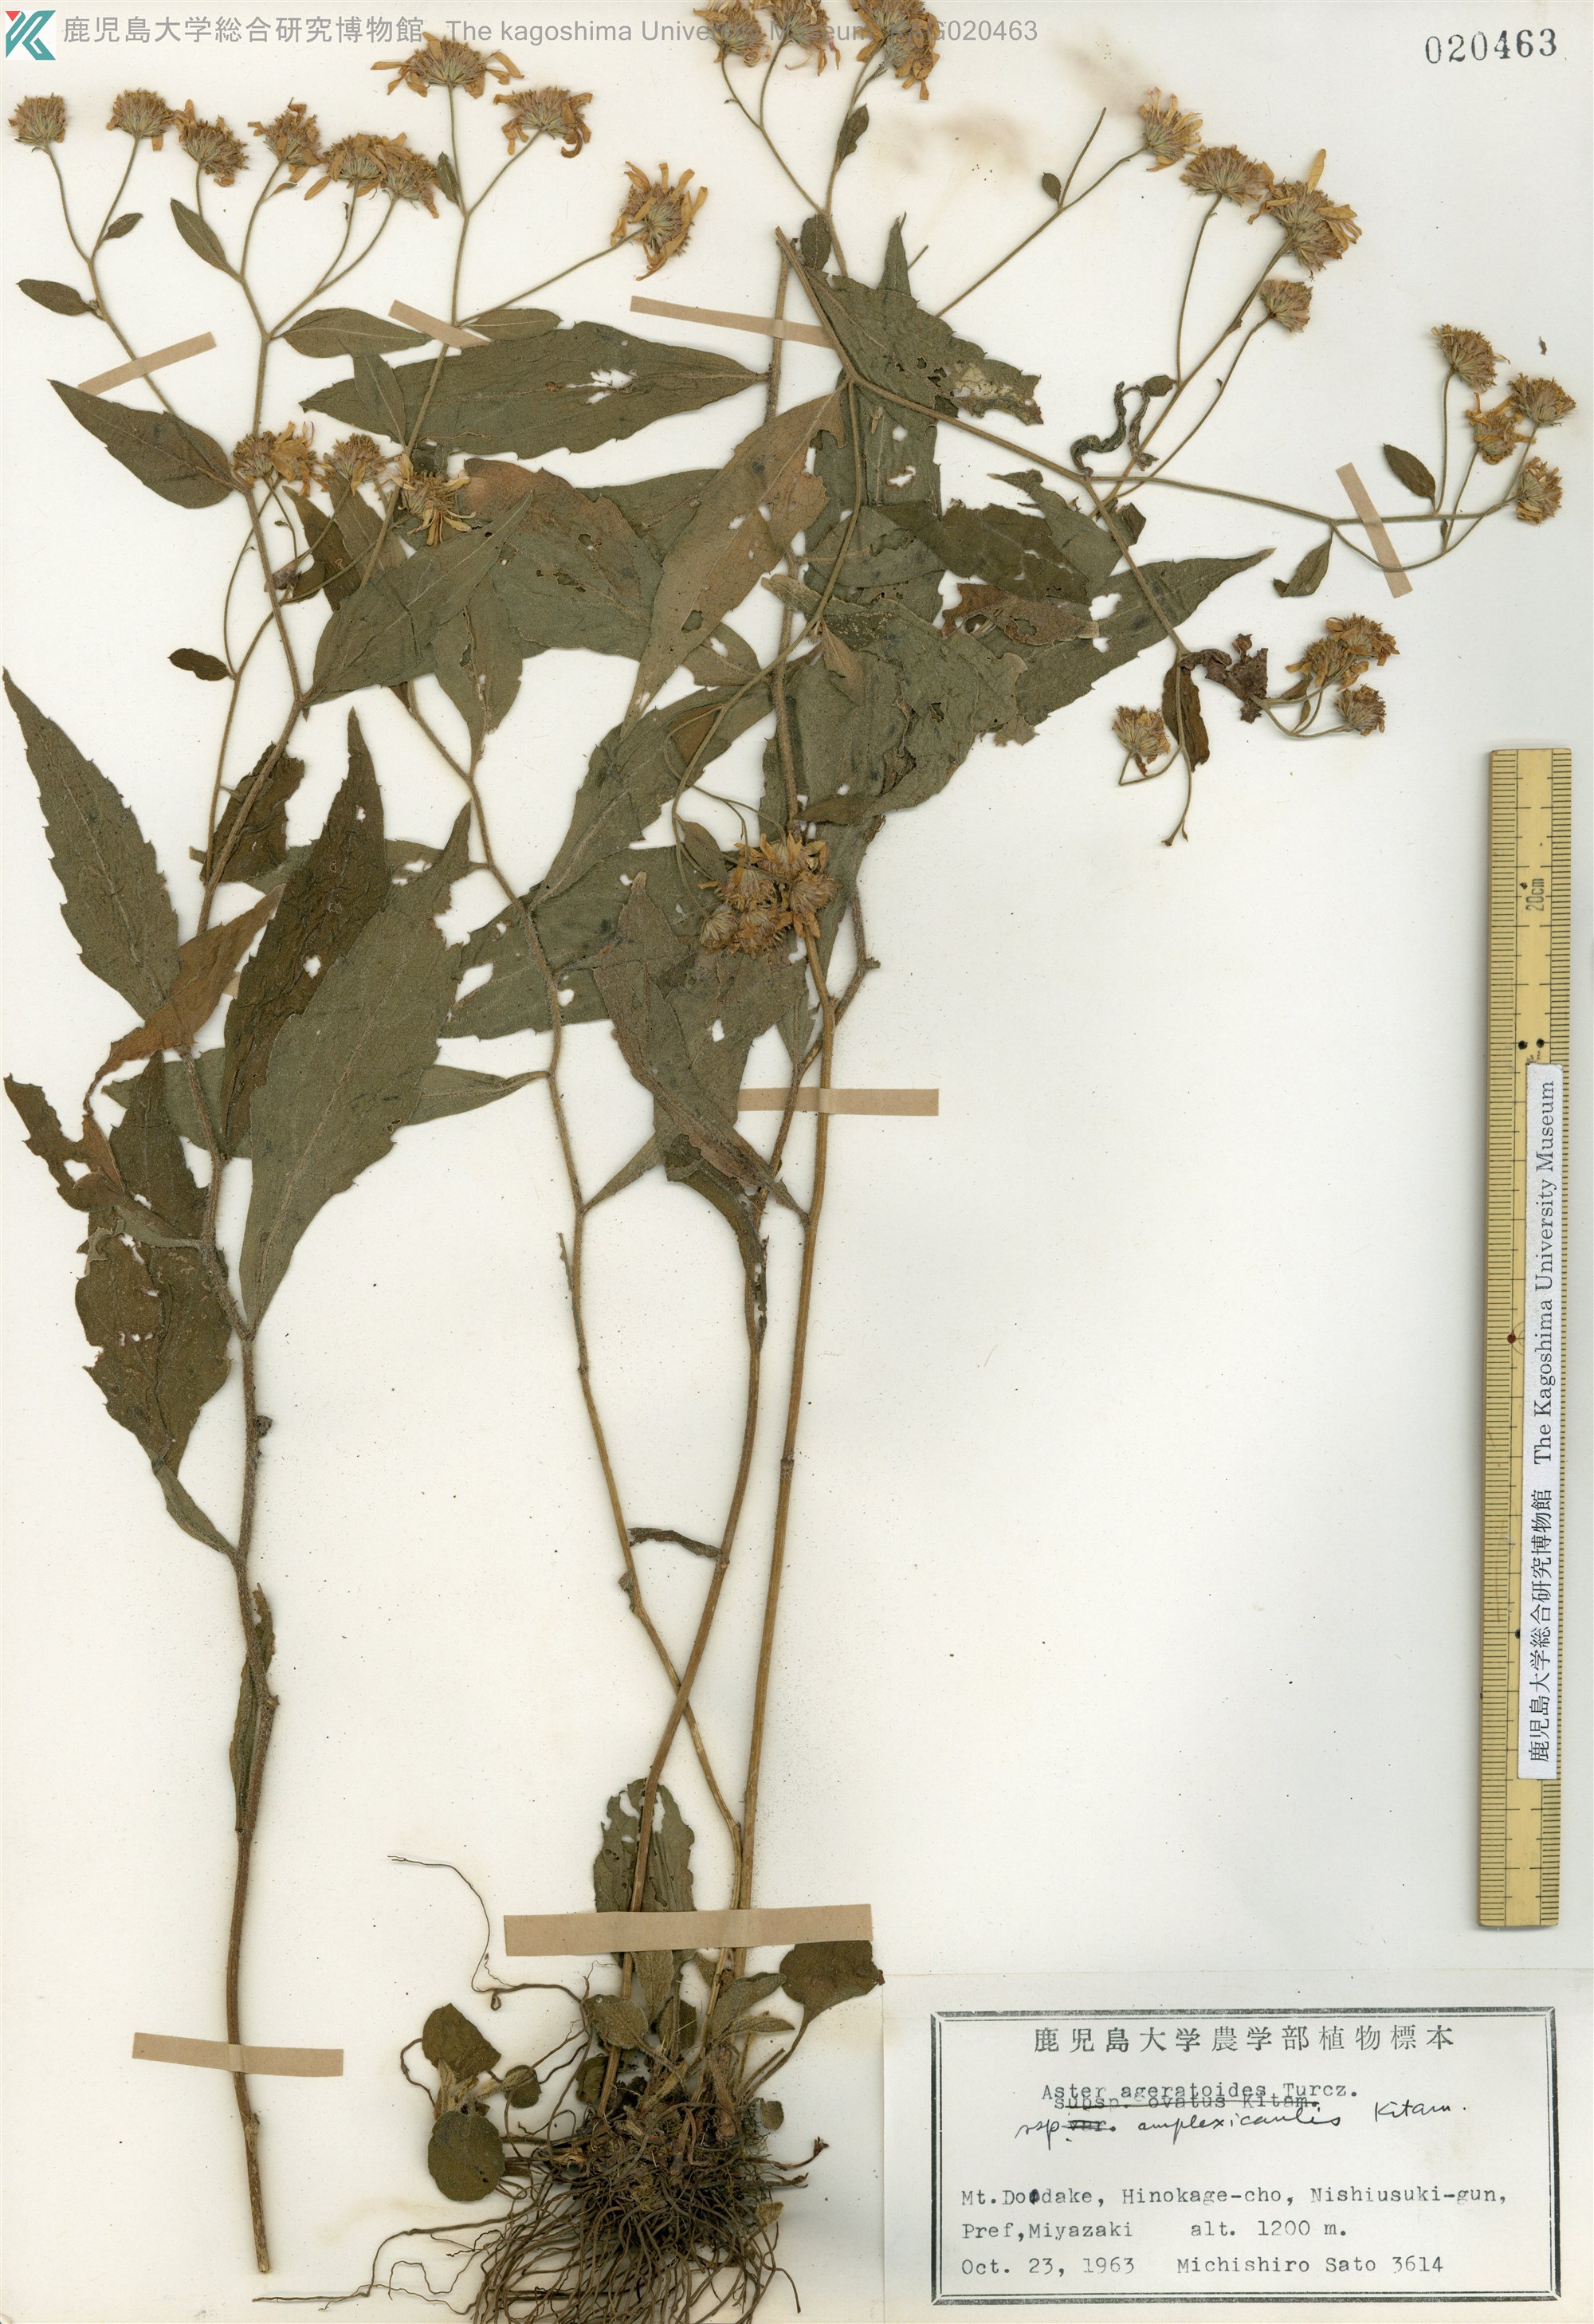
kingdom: Plantae
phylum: Tracheophyta
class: Magnoliopsida
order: Asterales
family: Asteraceae
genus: Aster
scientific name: Aster satsumensis
